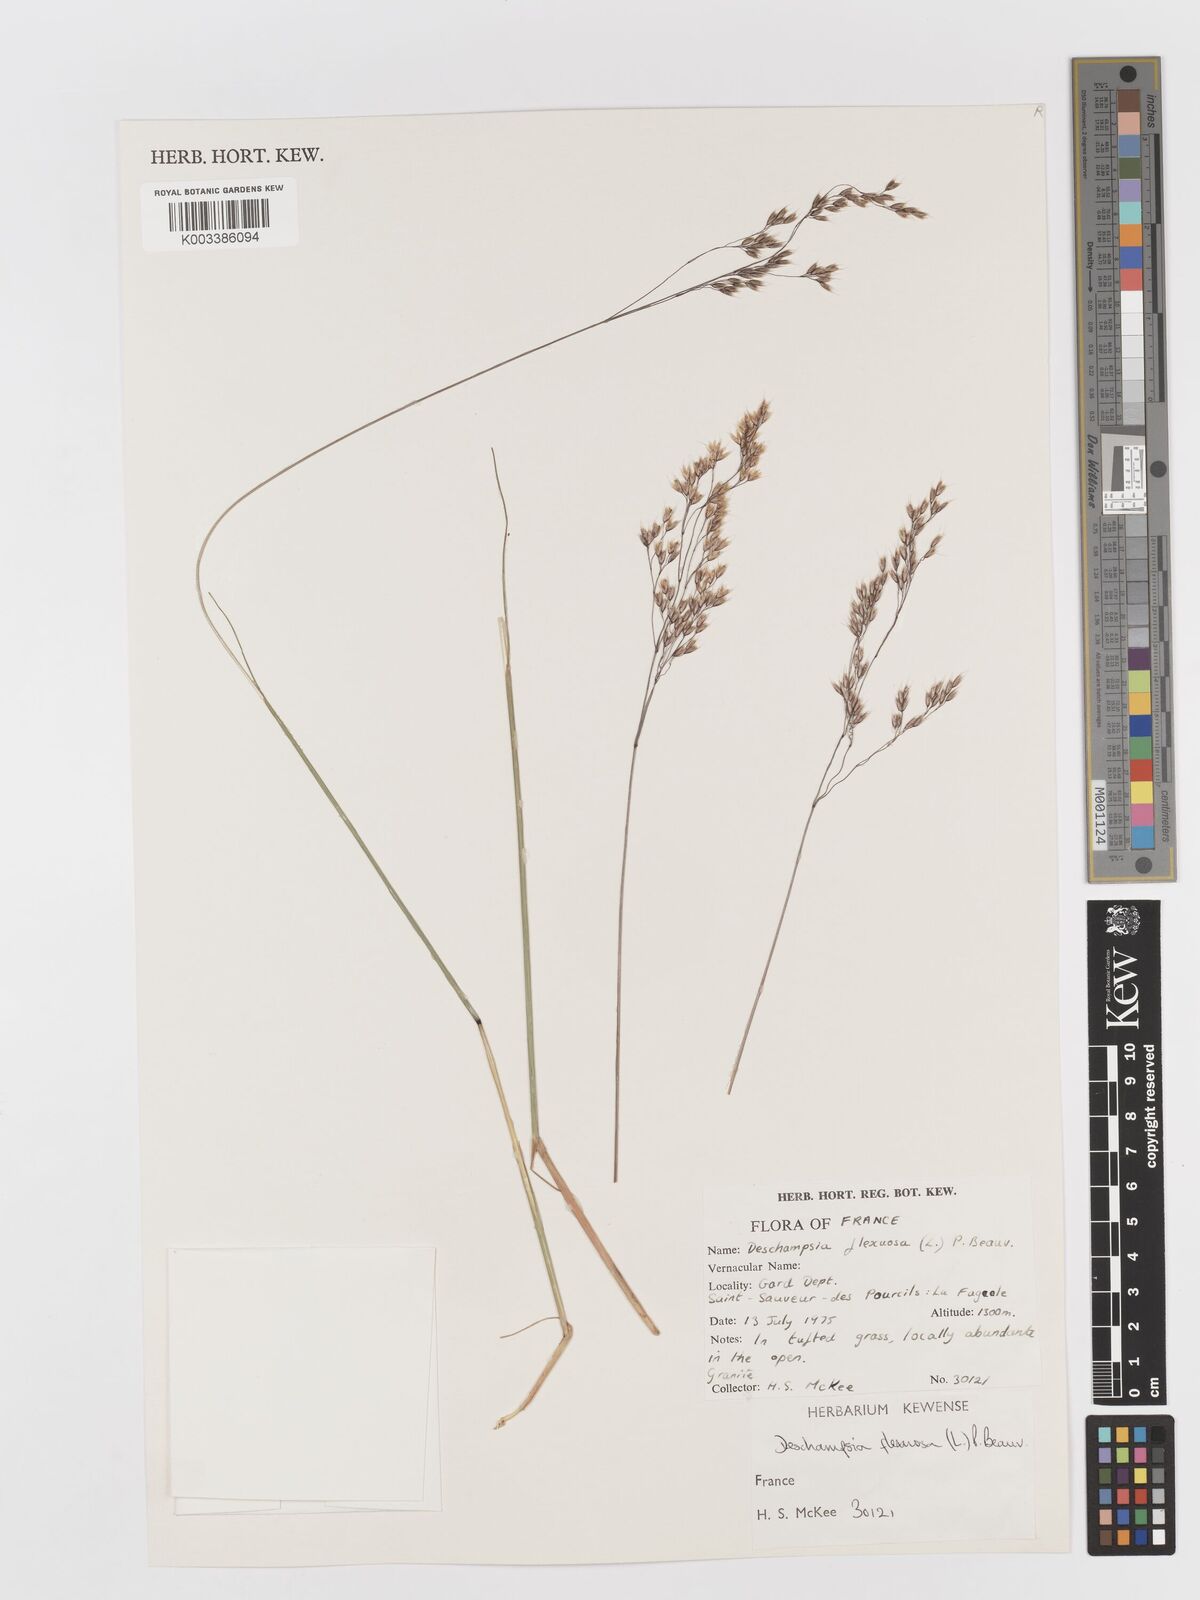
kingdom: Plantae
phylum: Tracheophyta
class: Liliopsida
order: Poales
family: Poaceae
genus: Avenella
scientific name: Avenella flexuosa
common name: Wavy hairgrass
